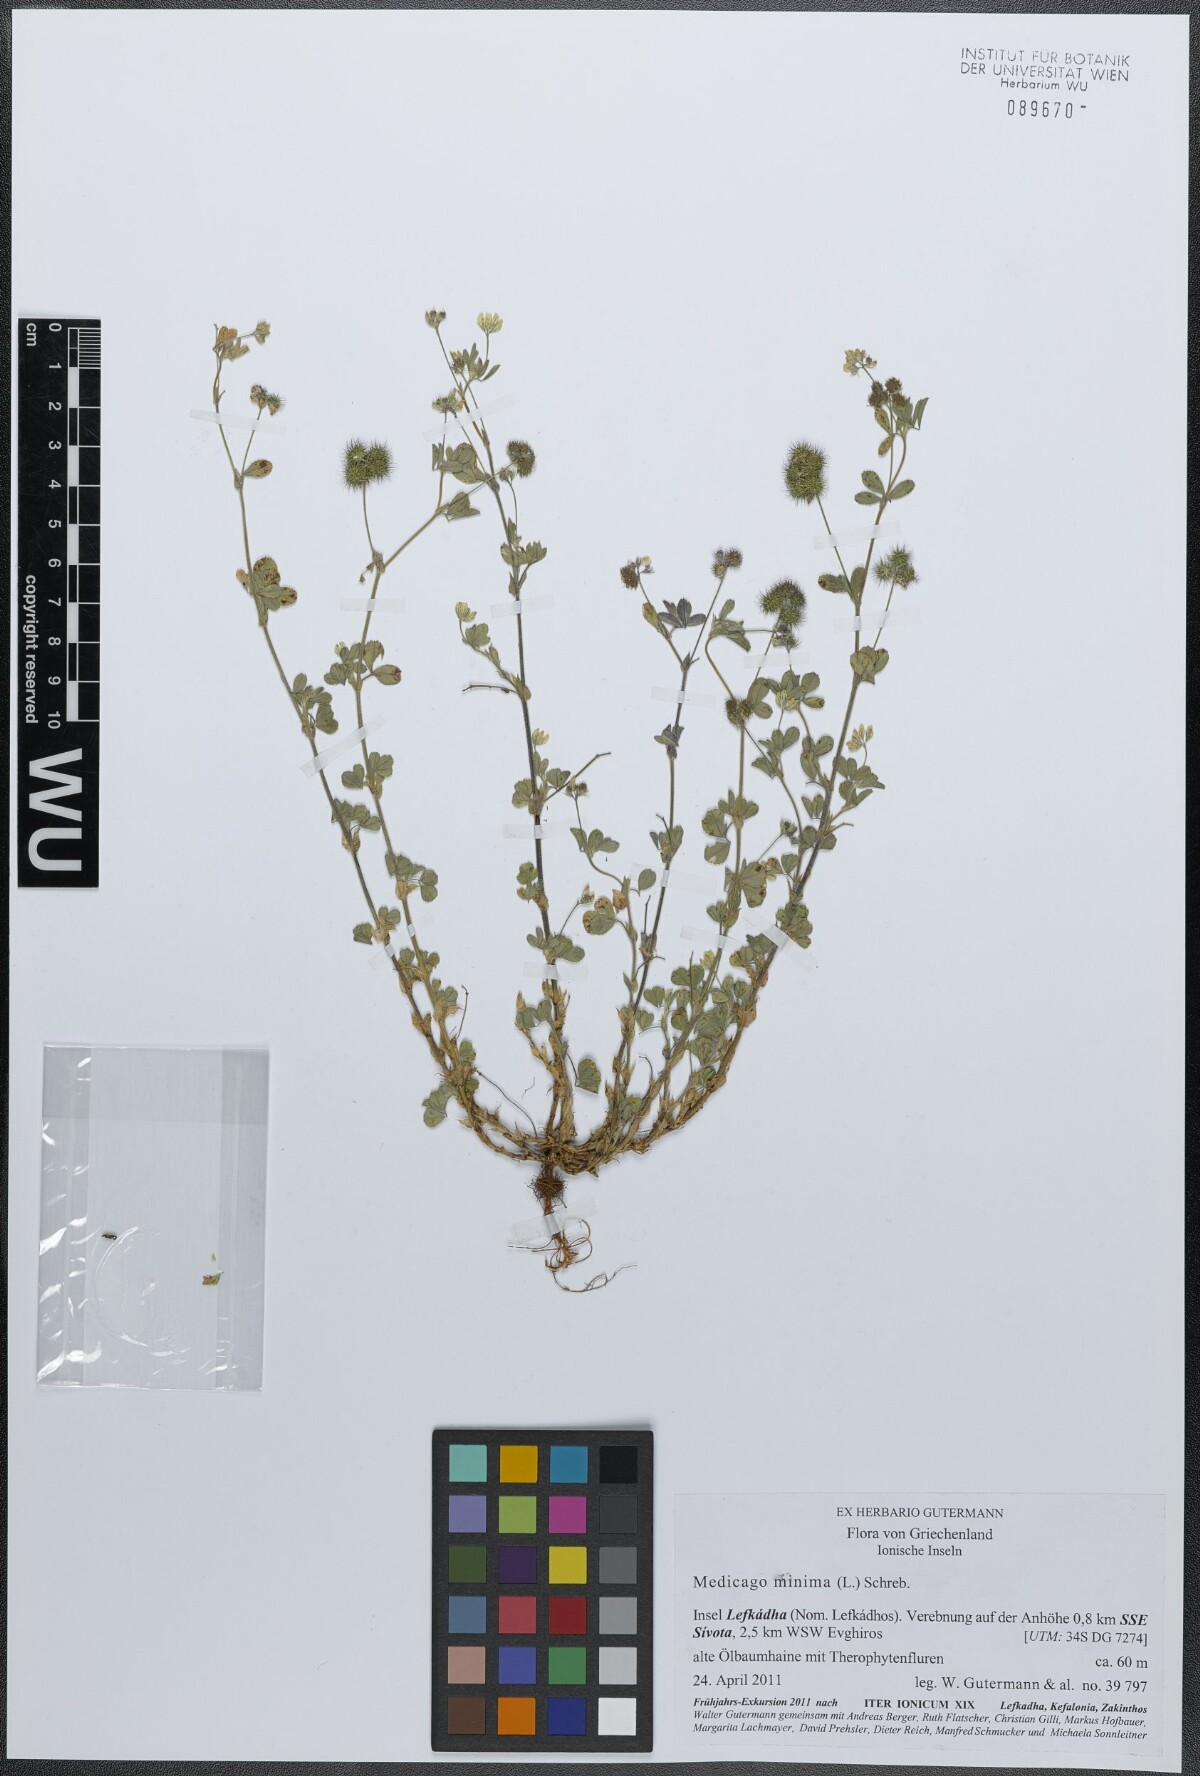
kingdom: Plantae
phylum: Tracheophyta
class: Magnoliopsida
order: Fabales
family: Fabaceae
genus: Medicago
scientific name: Medicago minima
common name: Little bur-clover
